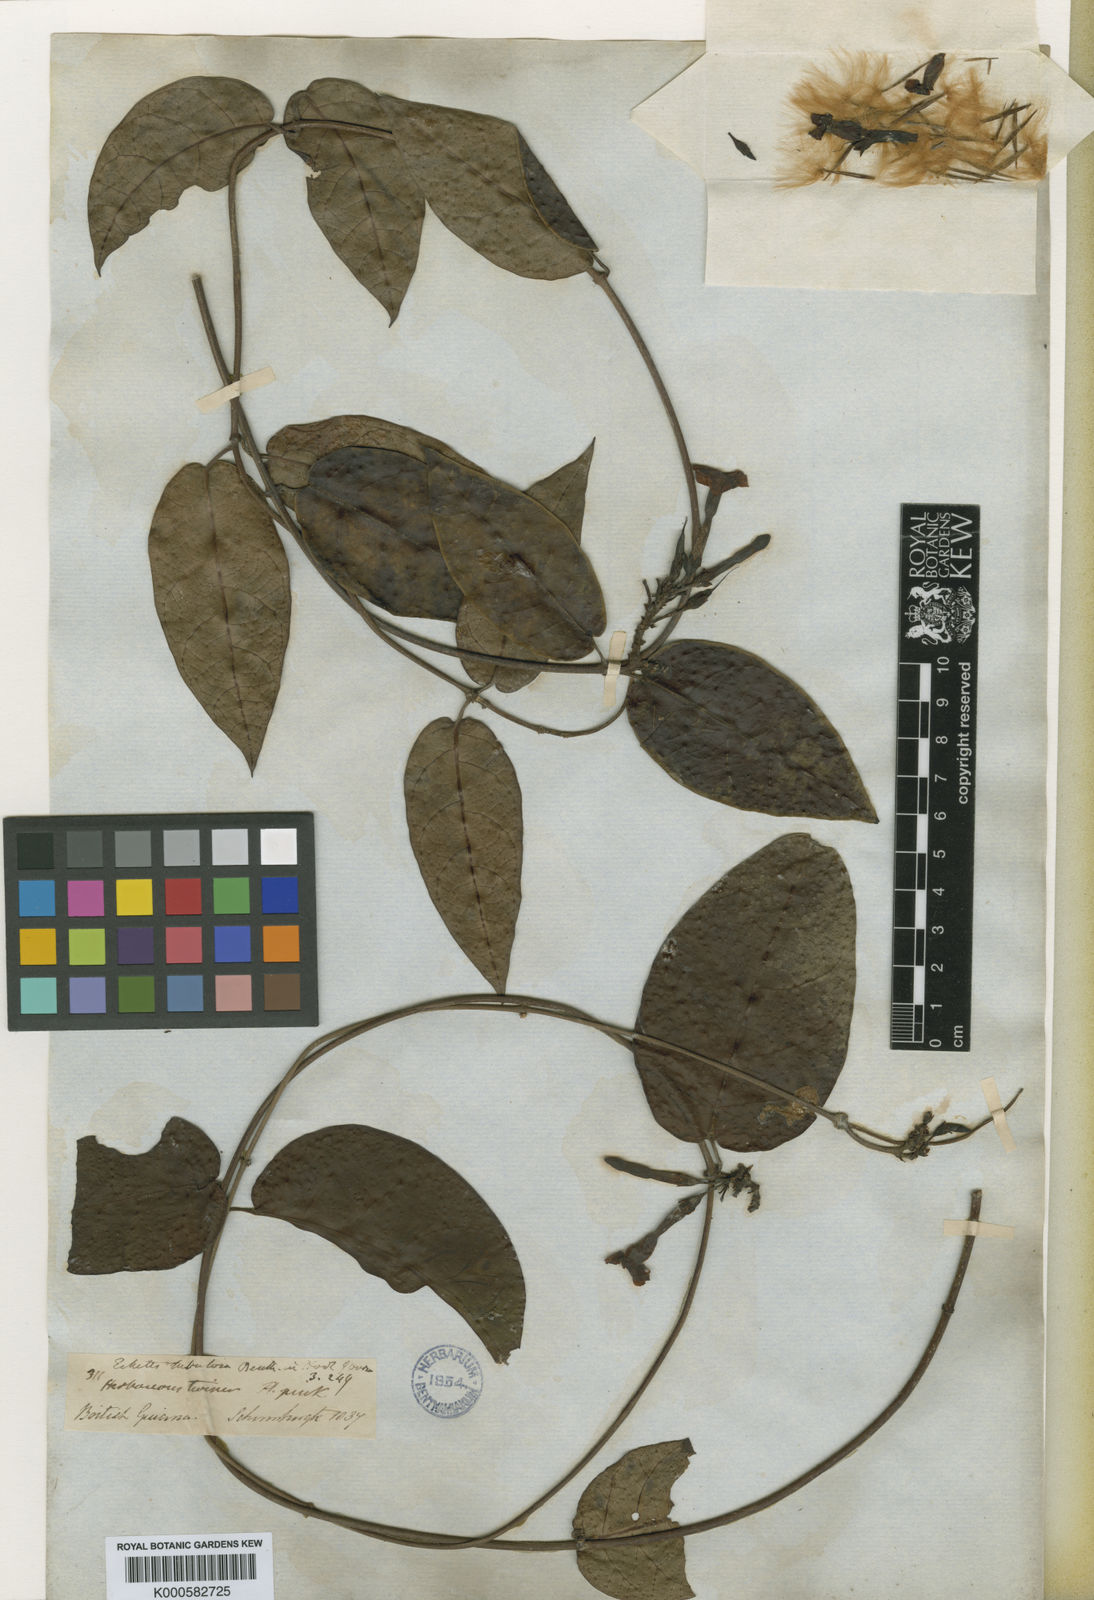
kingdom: Plantae
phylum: Tracheophyta
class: Magnoliopsida
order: Gentianales
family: Apocynaceae
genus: Mesechites
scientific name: Mesechites
